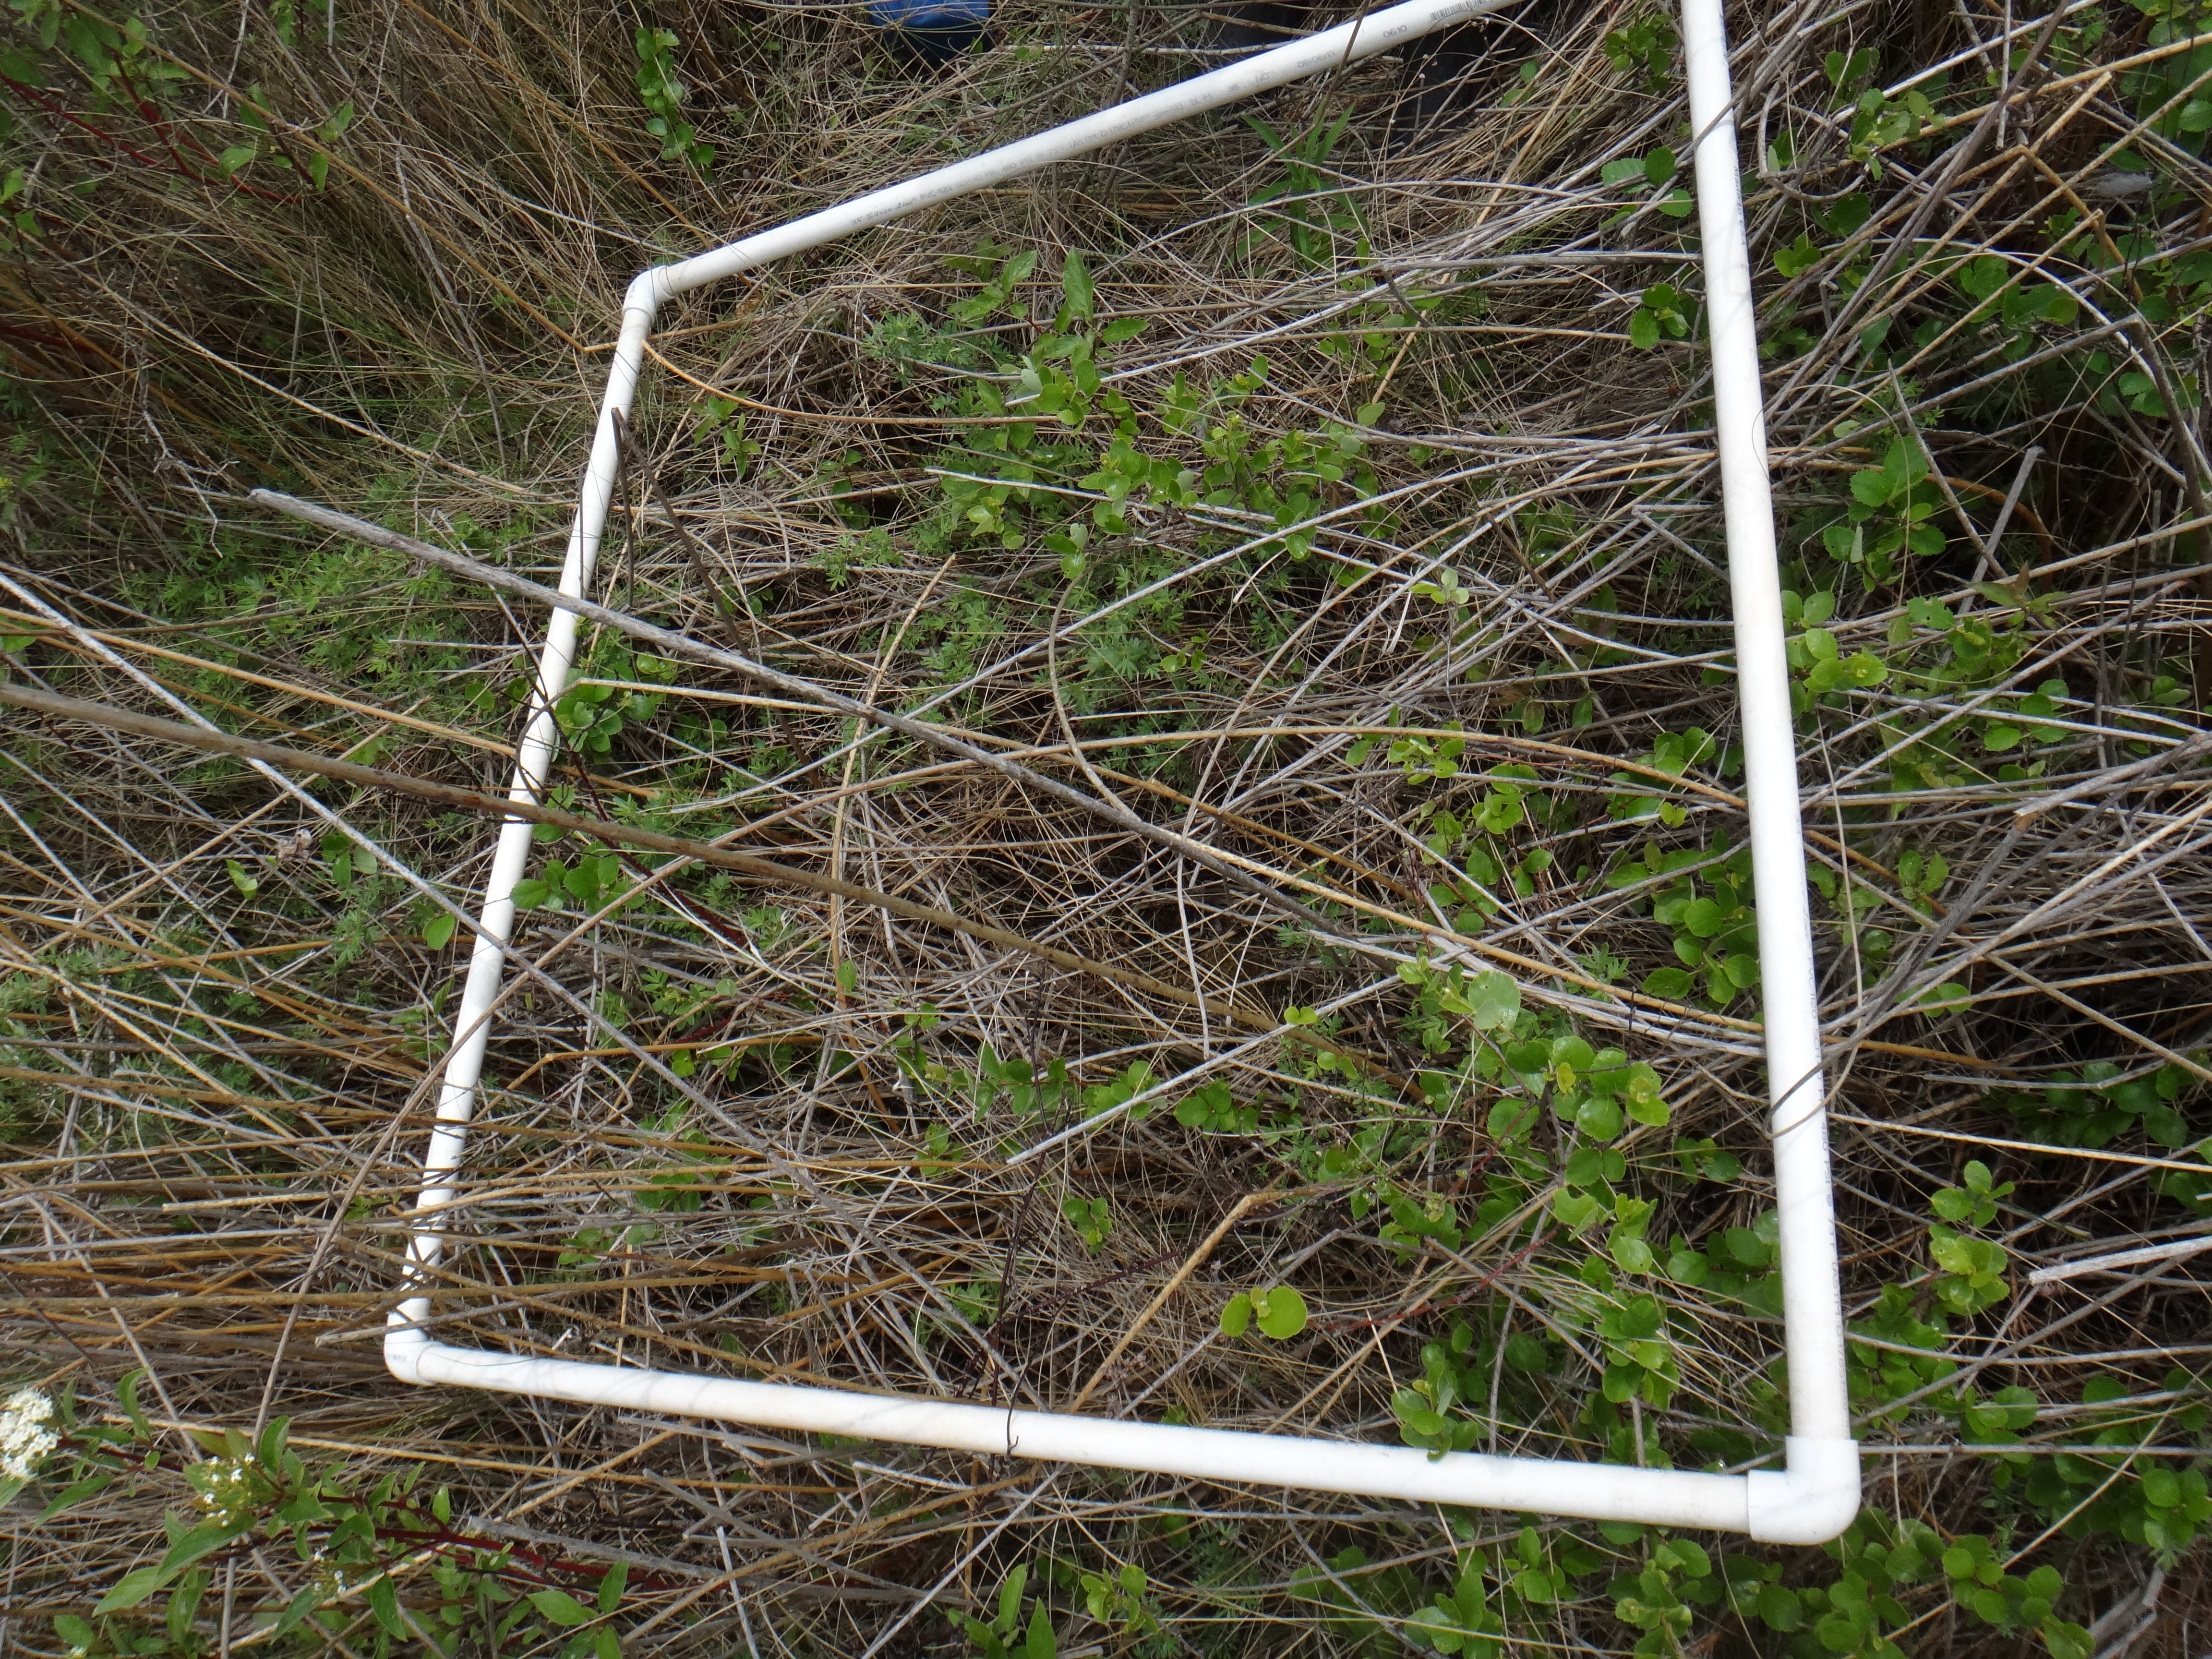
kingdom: Plantae
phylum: Tracheophyta
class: Magnoliopsida
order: Rosales
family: Rosaceae
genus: Dasiphora
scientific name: Dasiphora fruticosa
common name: Shrubby cinquefoil
